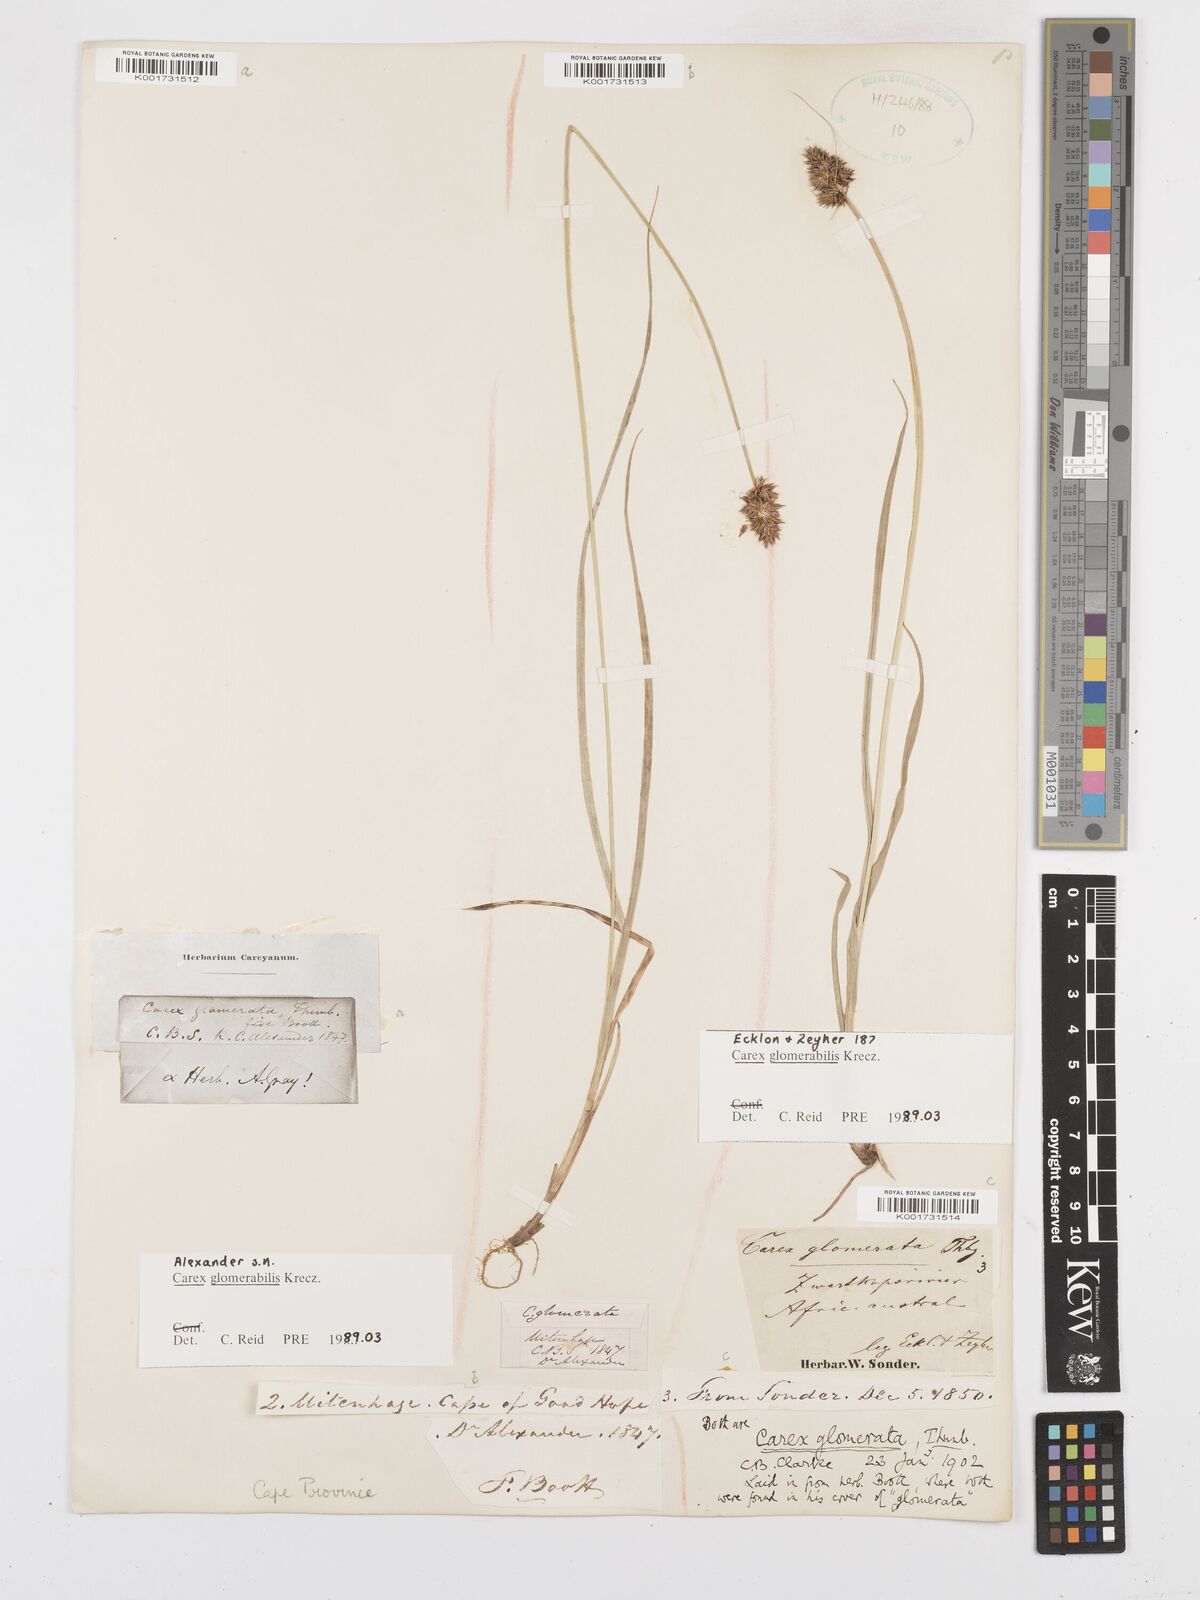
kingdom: Plantae
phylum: Tracheophyta
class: Liliopsida
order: Poales
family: Cyperaceae
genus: Carex
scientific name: Carex glomerata
